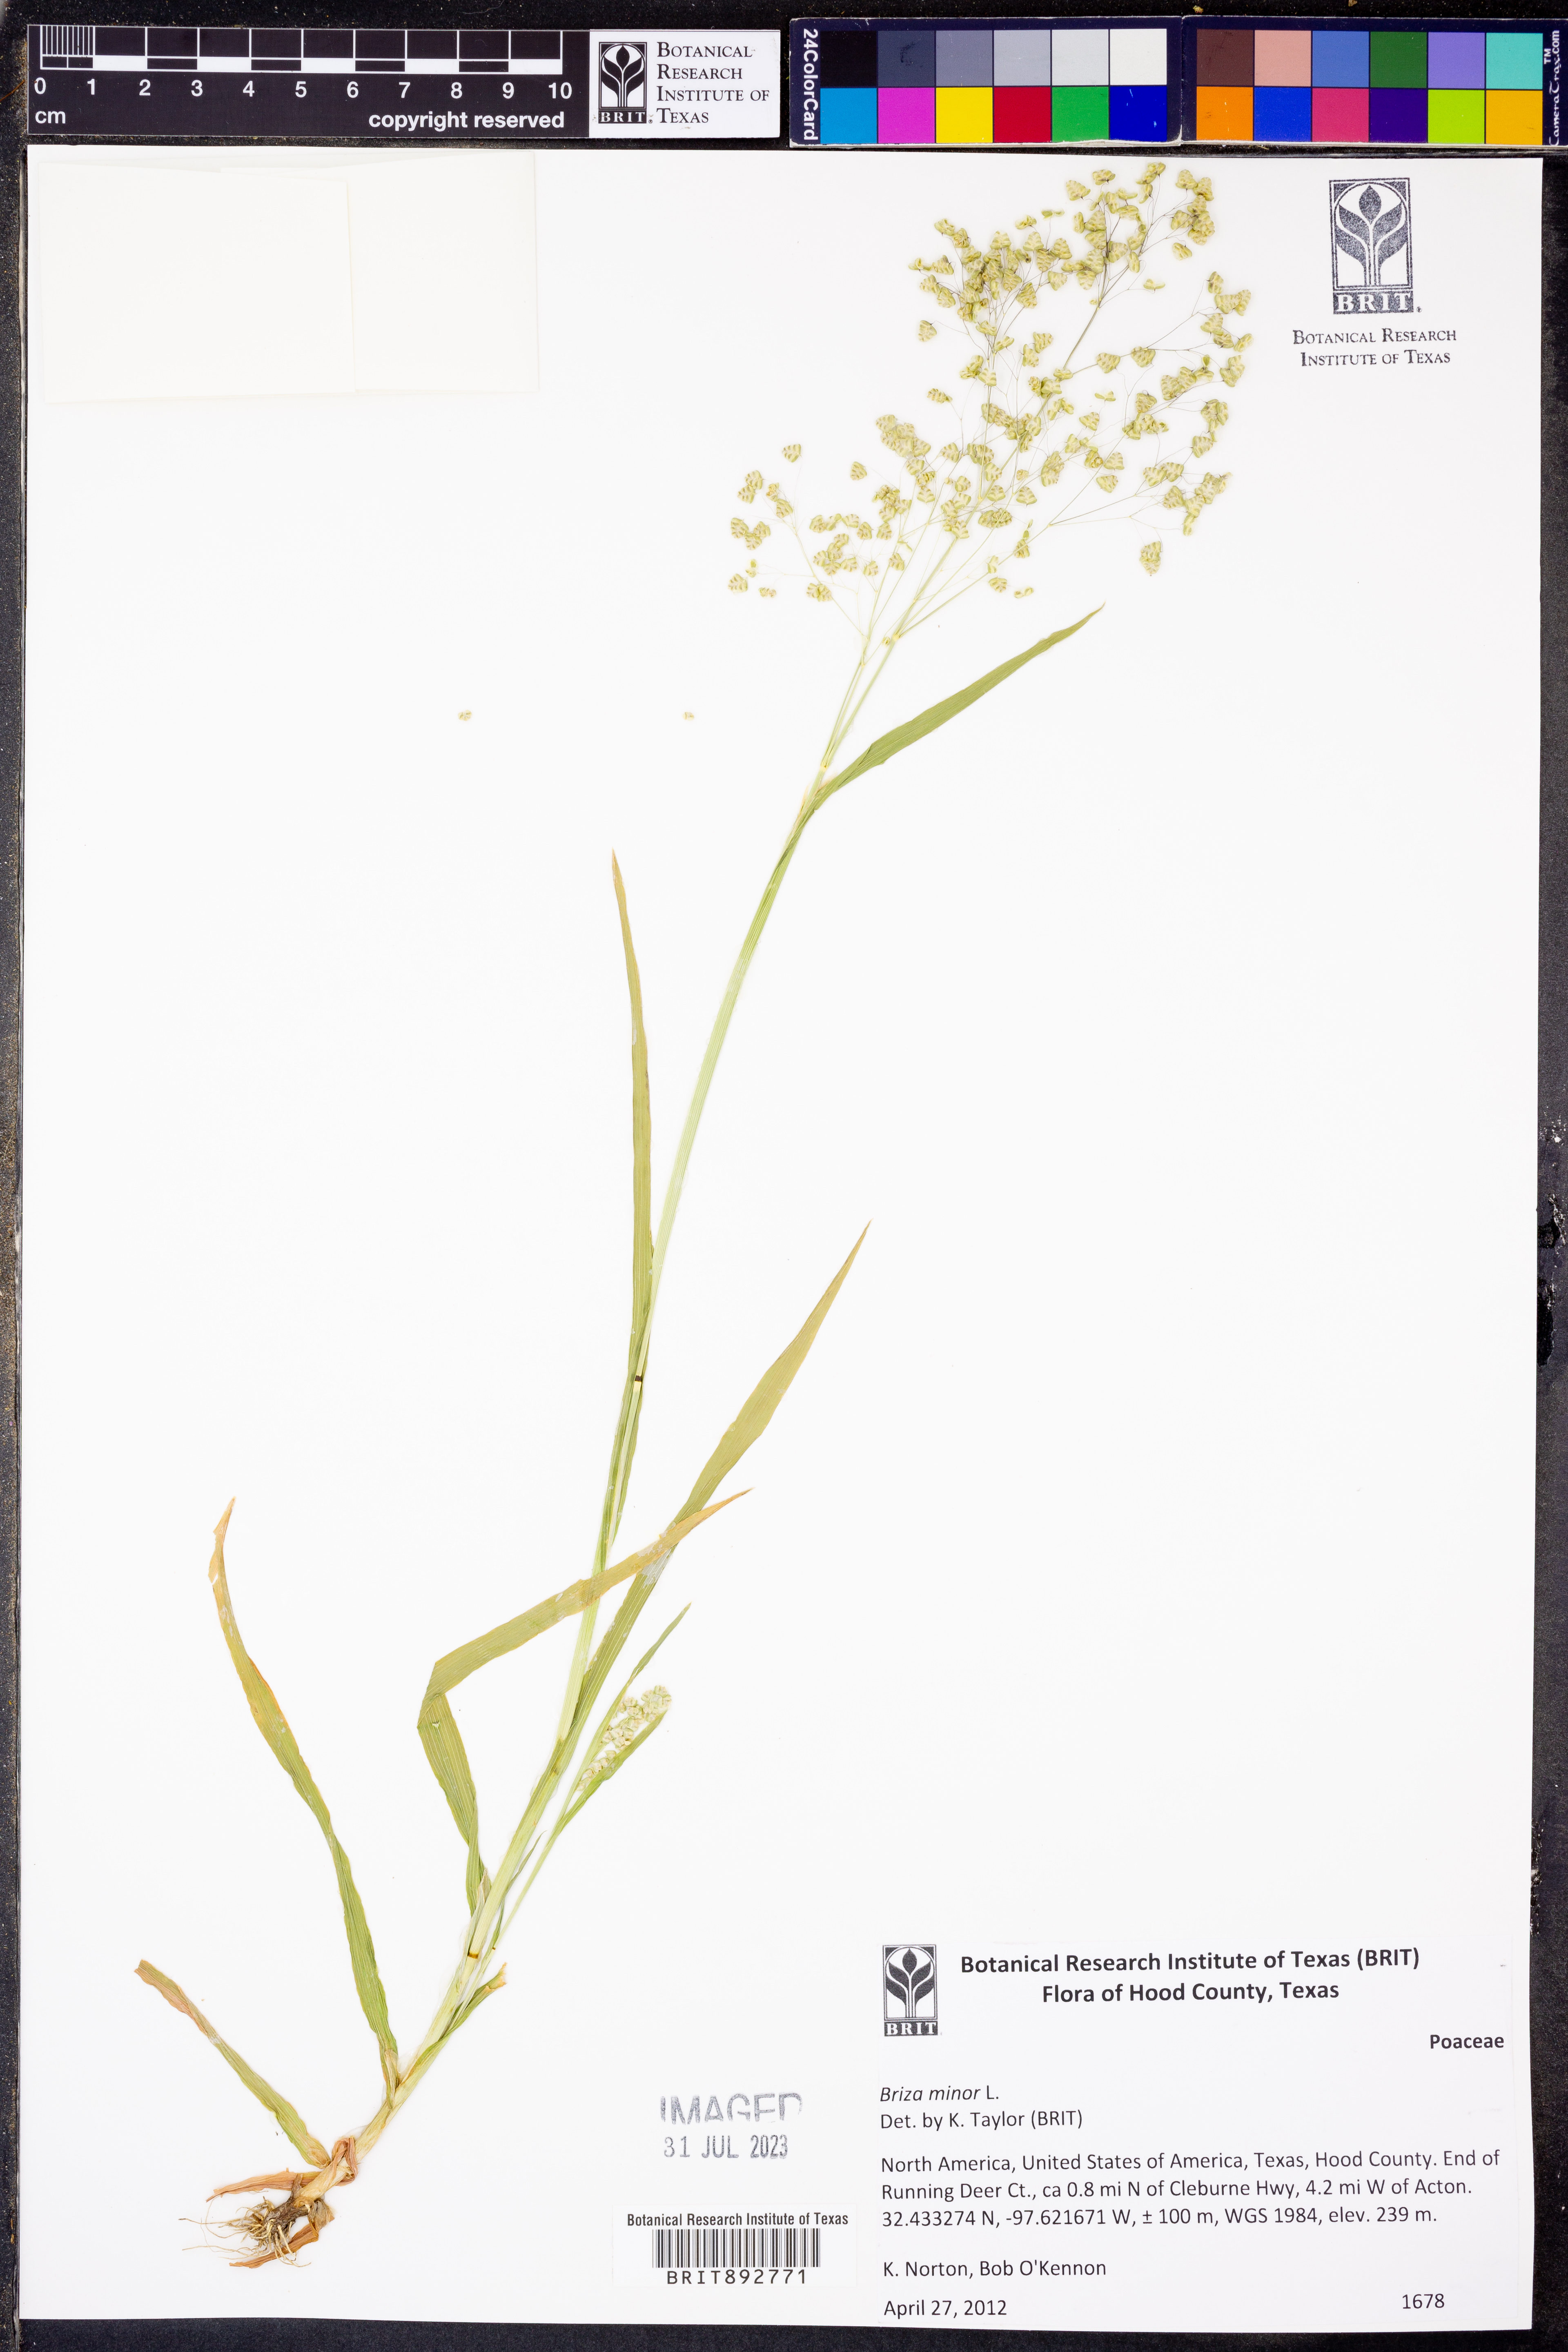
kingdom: Plantae
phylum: Tracheophyta
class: Liliopsida
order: Poales
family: Poaceae
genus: Briza
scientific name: Briza minor
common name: Lesser quaking-grass
